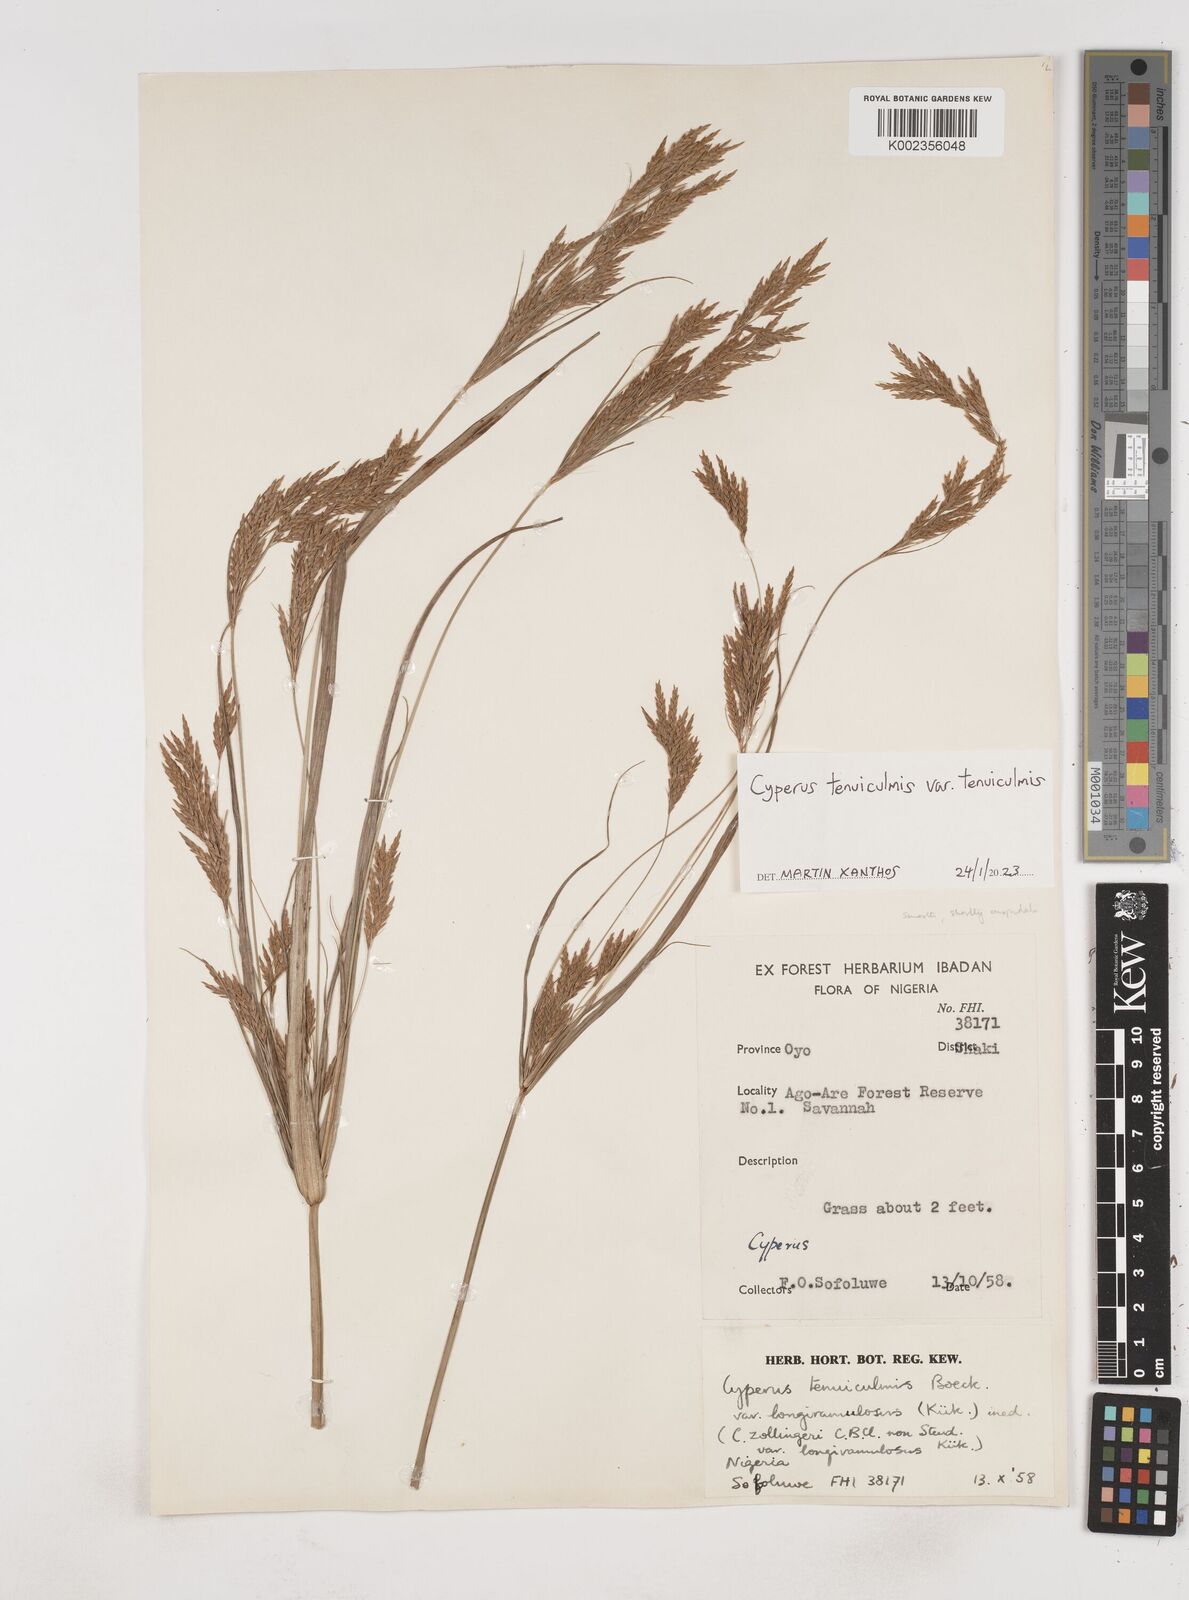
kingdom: Plantae
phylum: Tracheophyta
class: Liliopsida
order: Poales
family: Cyperaceae
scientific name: Cyperaceae
